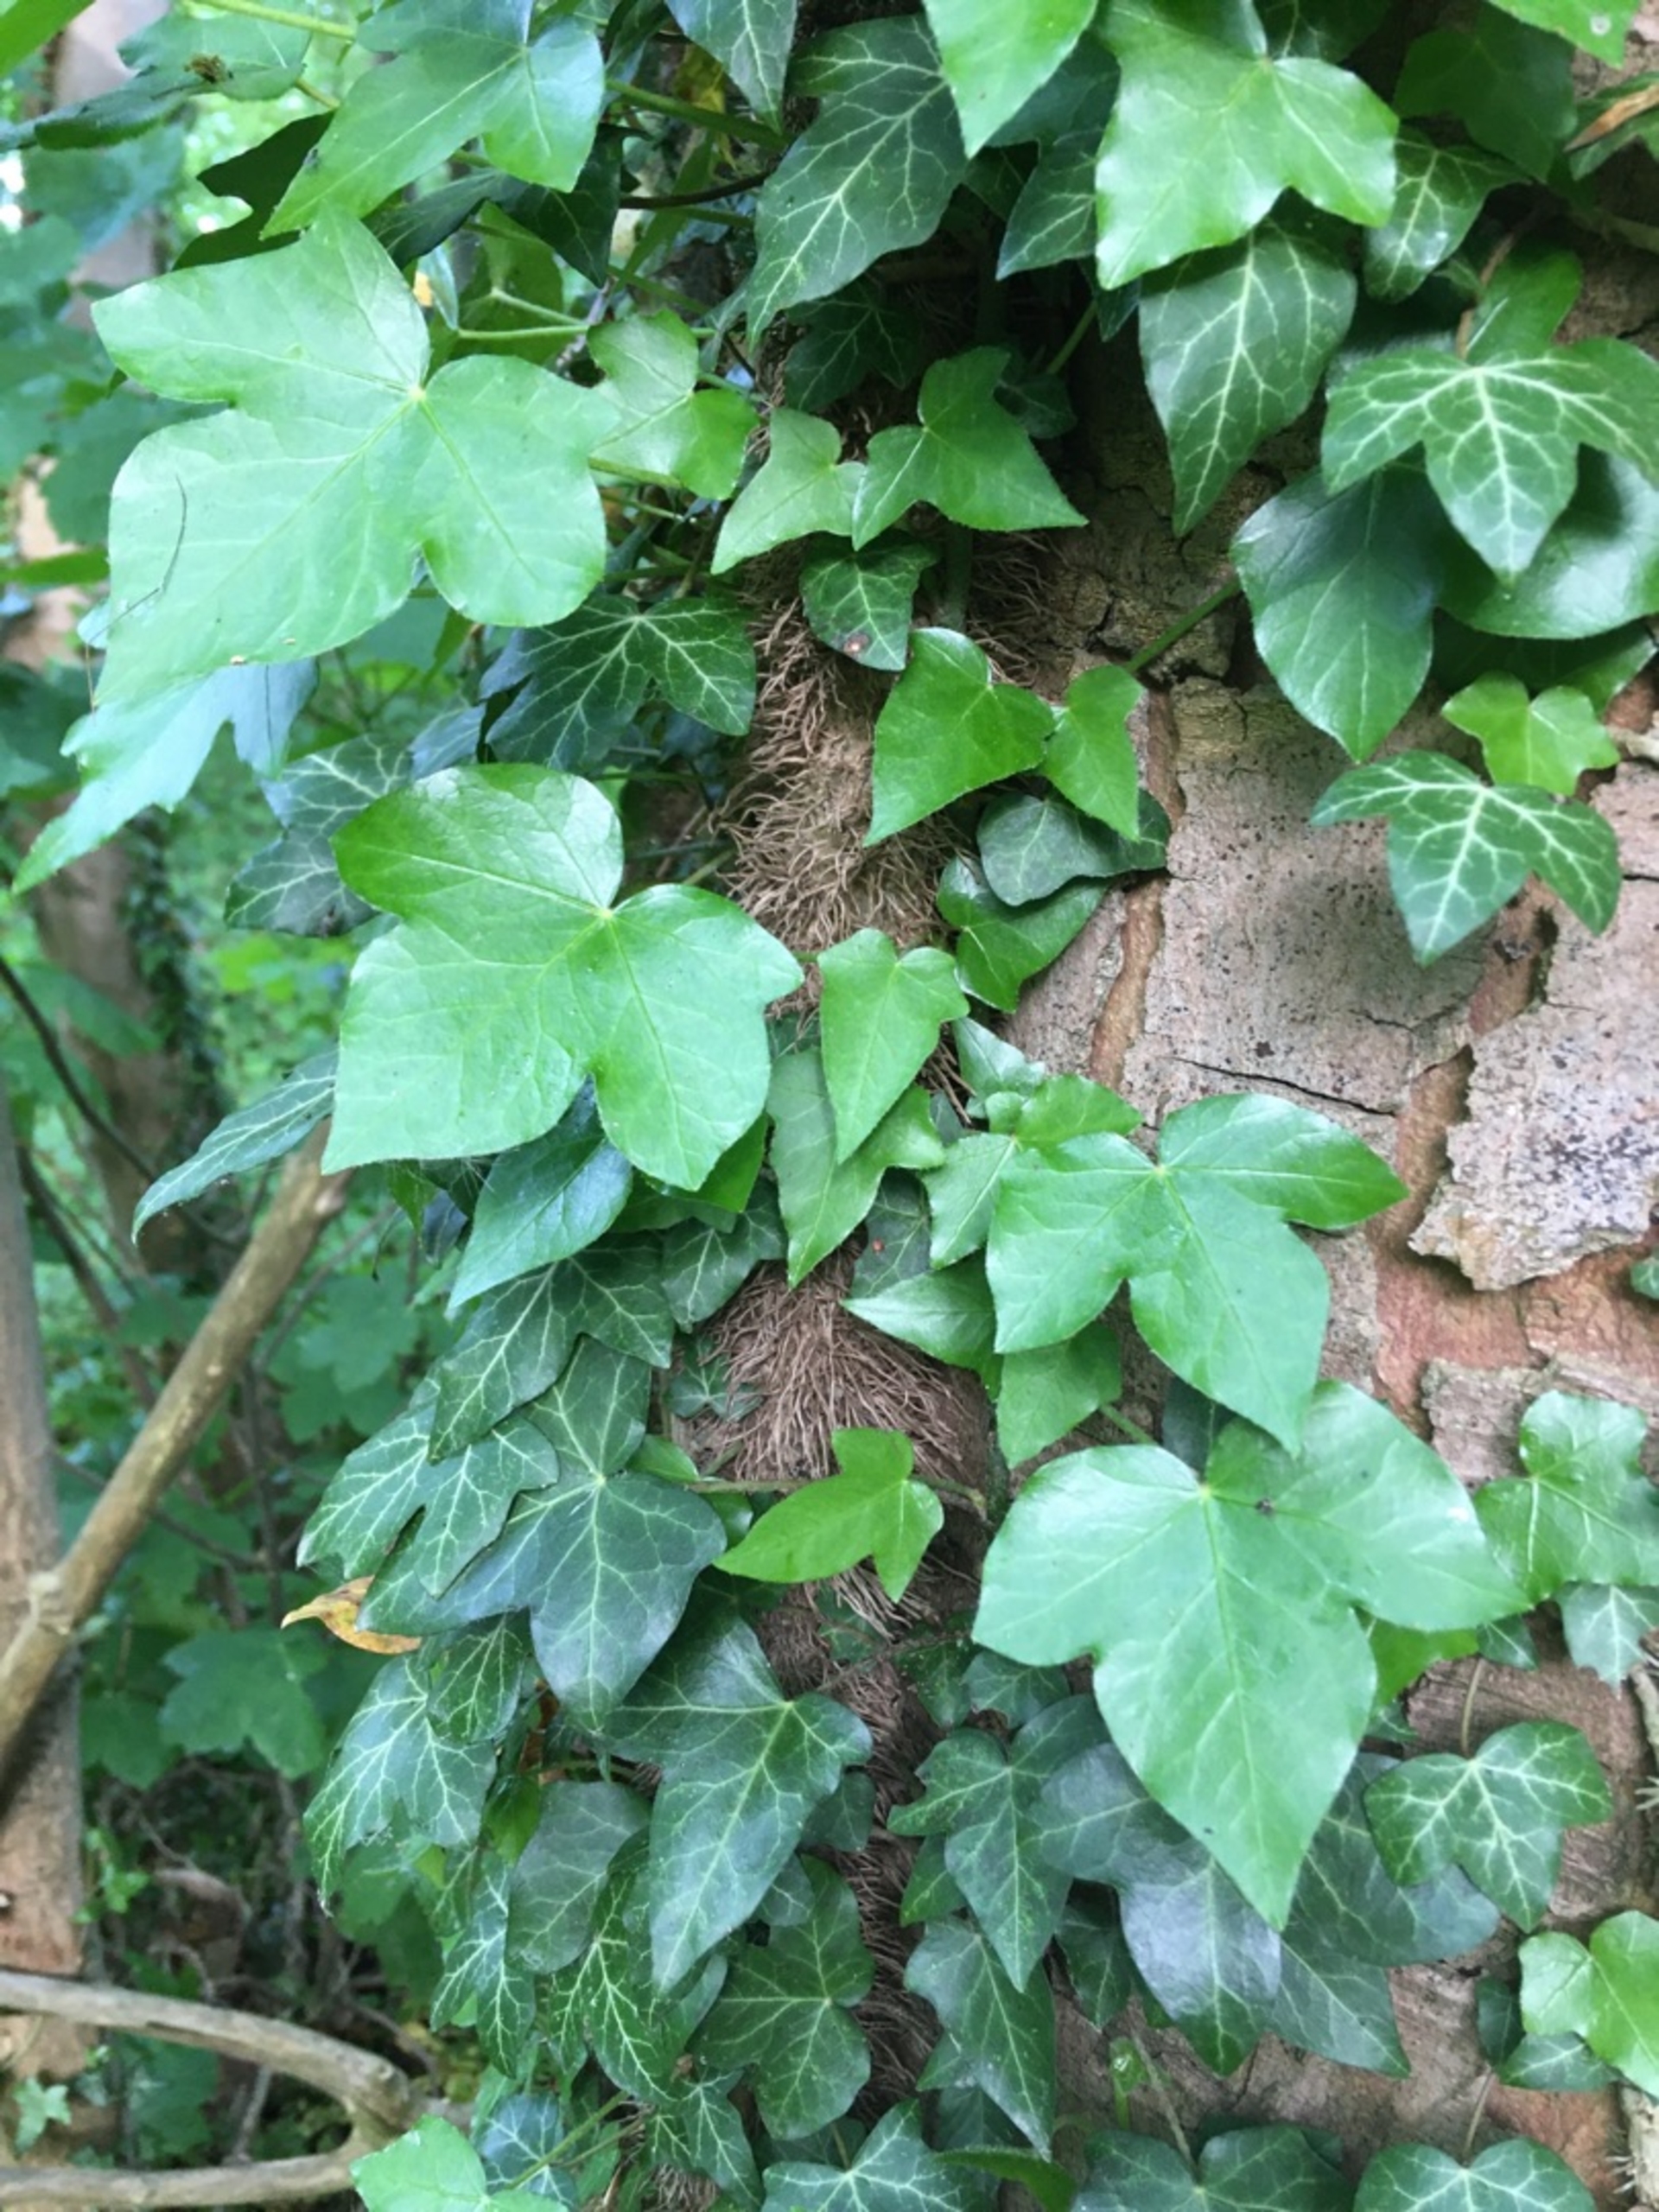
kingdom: Plantae
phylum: Tracheophyta
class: Magnoliopsida
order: Apiales
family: Araliaceae
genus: Hedera
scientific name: Hedera helix
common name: Vedbend
